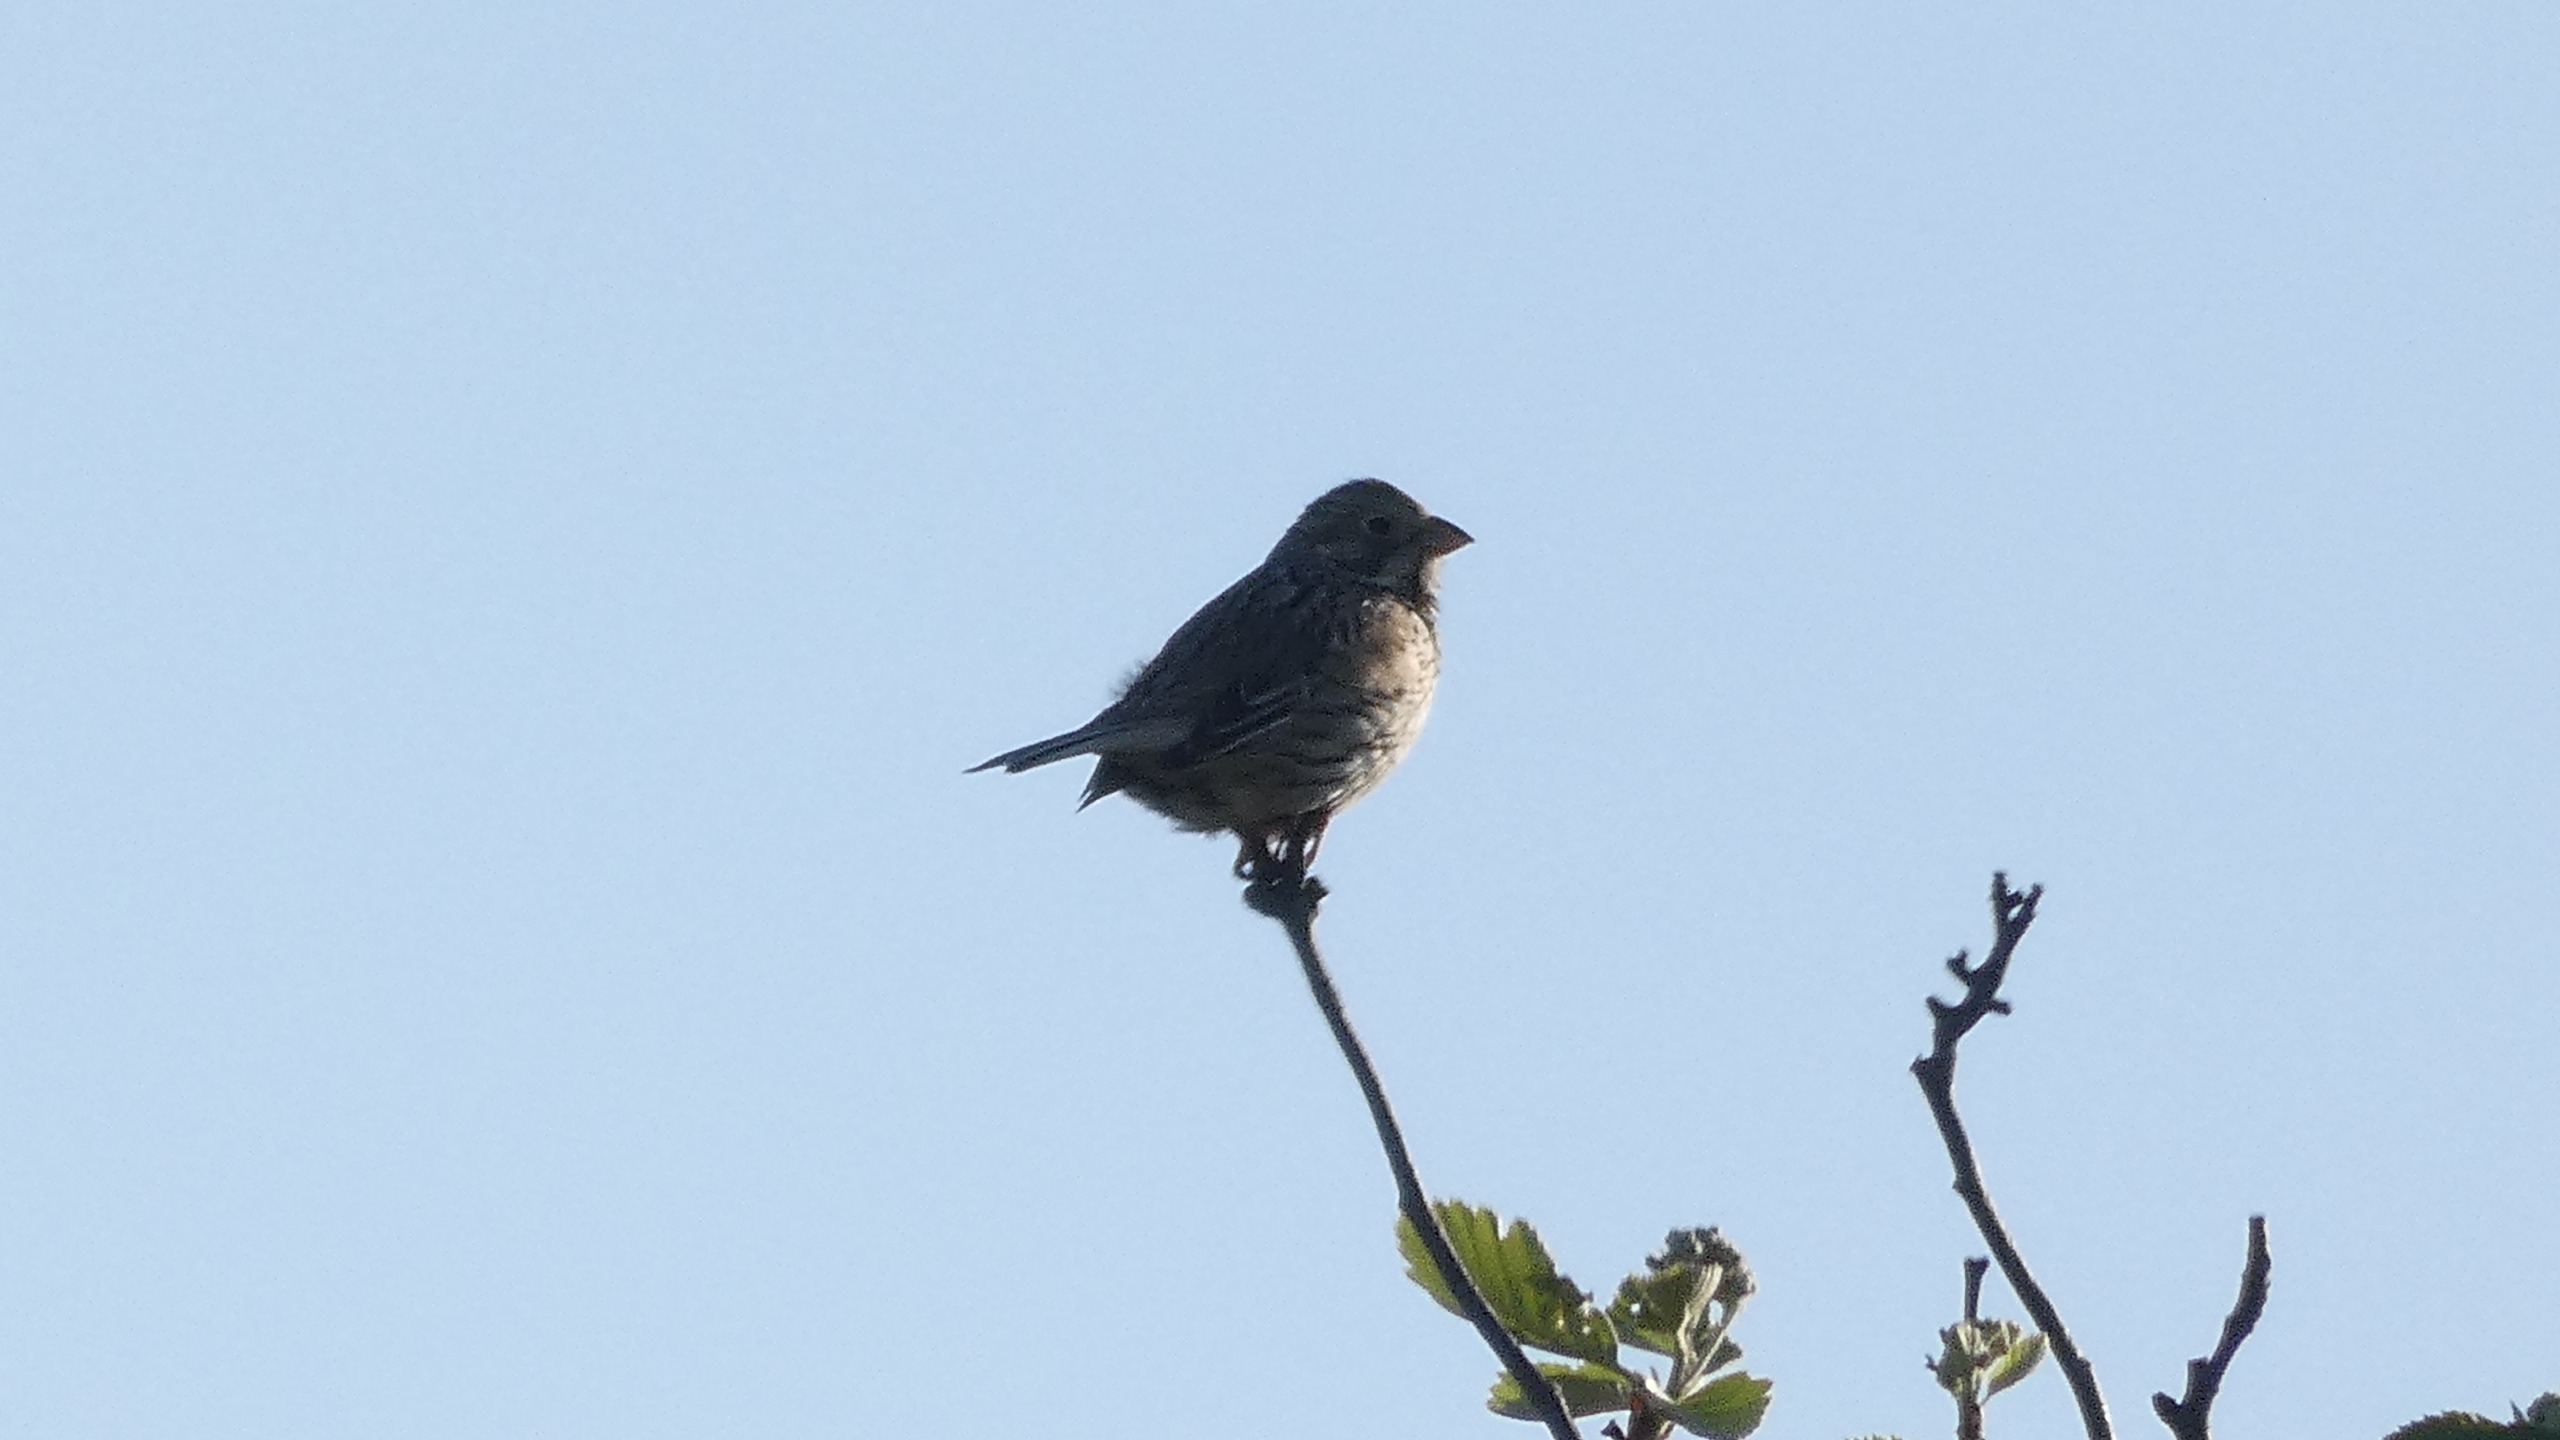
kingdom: Animalia
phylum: Chordata
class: Aves
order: Passeriformes
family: Emberizidae
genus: Emberiza
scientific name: Emberiza calandra
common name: Bomlærke
